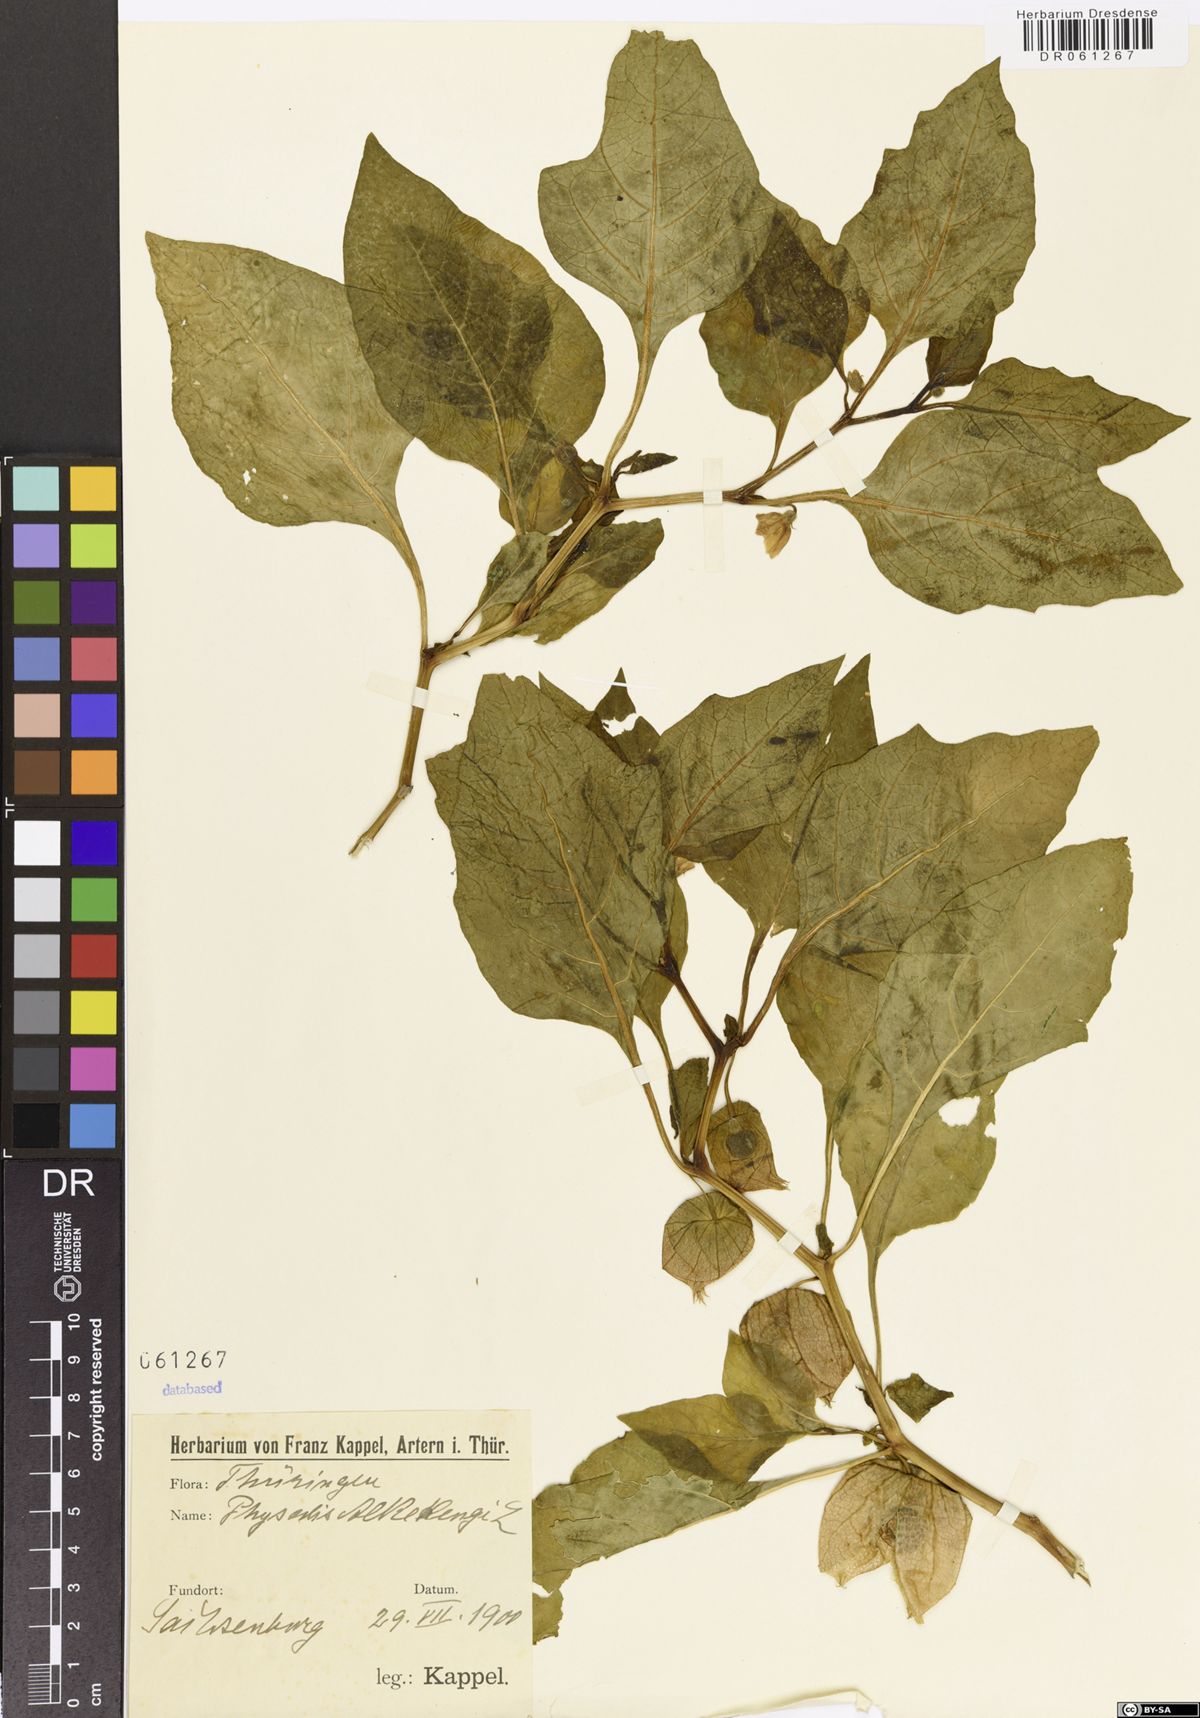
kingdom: Plantae
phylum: Tracheophyta
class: Magnoliopsida
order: Solanales
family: Solanaceae
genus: Alkekengi
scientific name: Alkekengi officinarum
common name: Japanese-lantern
